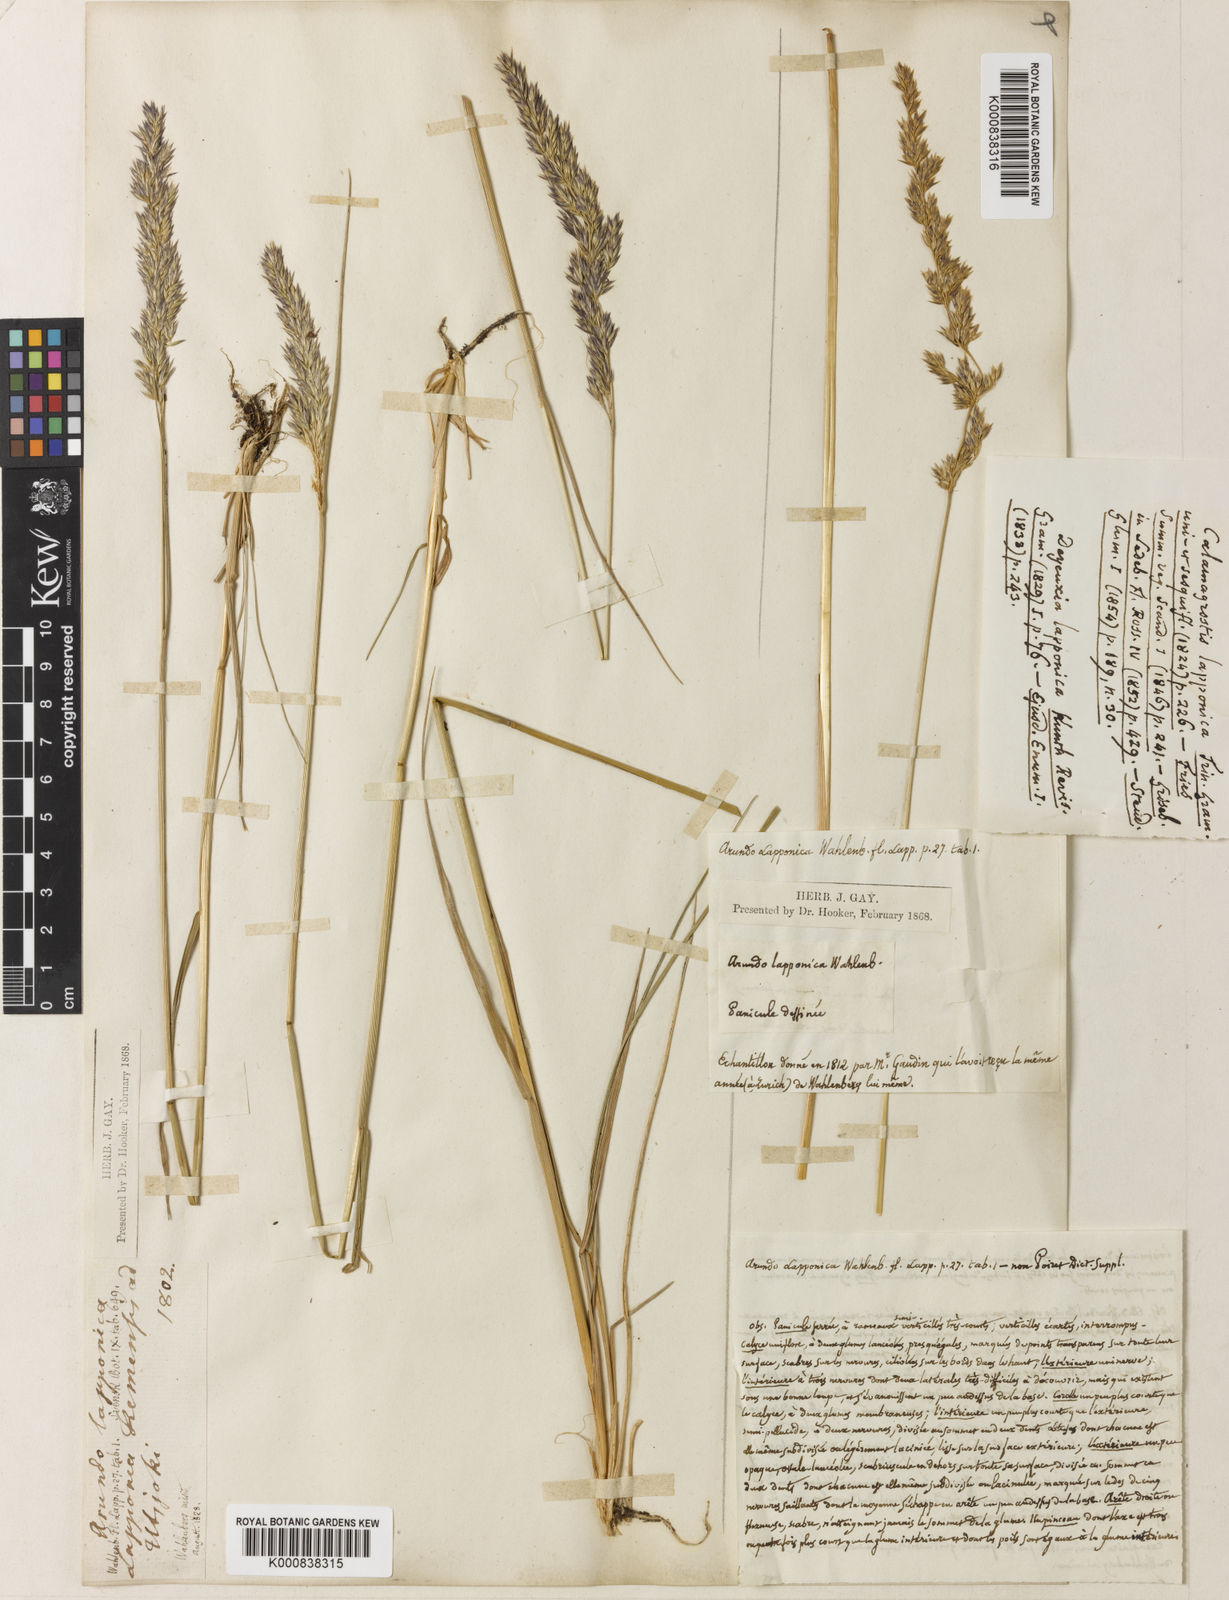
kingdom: Plantae
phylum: Tracheophyta
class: Liliopsida
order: Poales
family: Poaceae
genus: Calamagrostis
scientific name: Calamagrostis lapponica
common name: Lapland reedgrass
